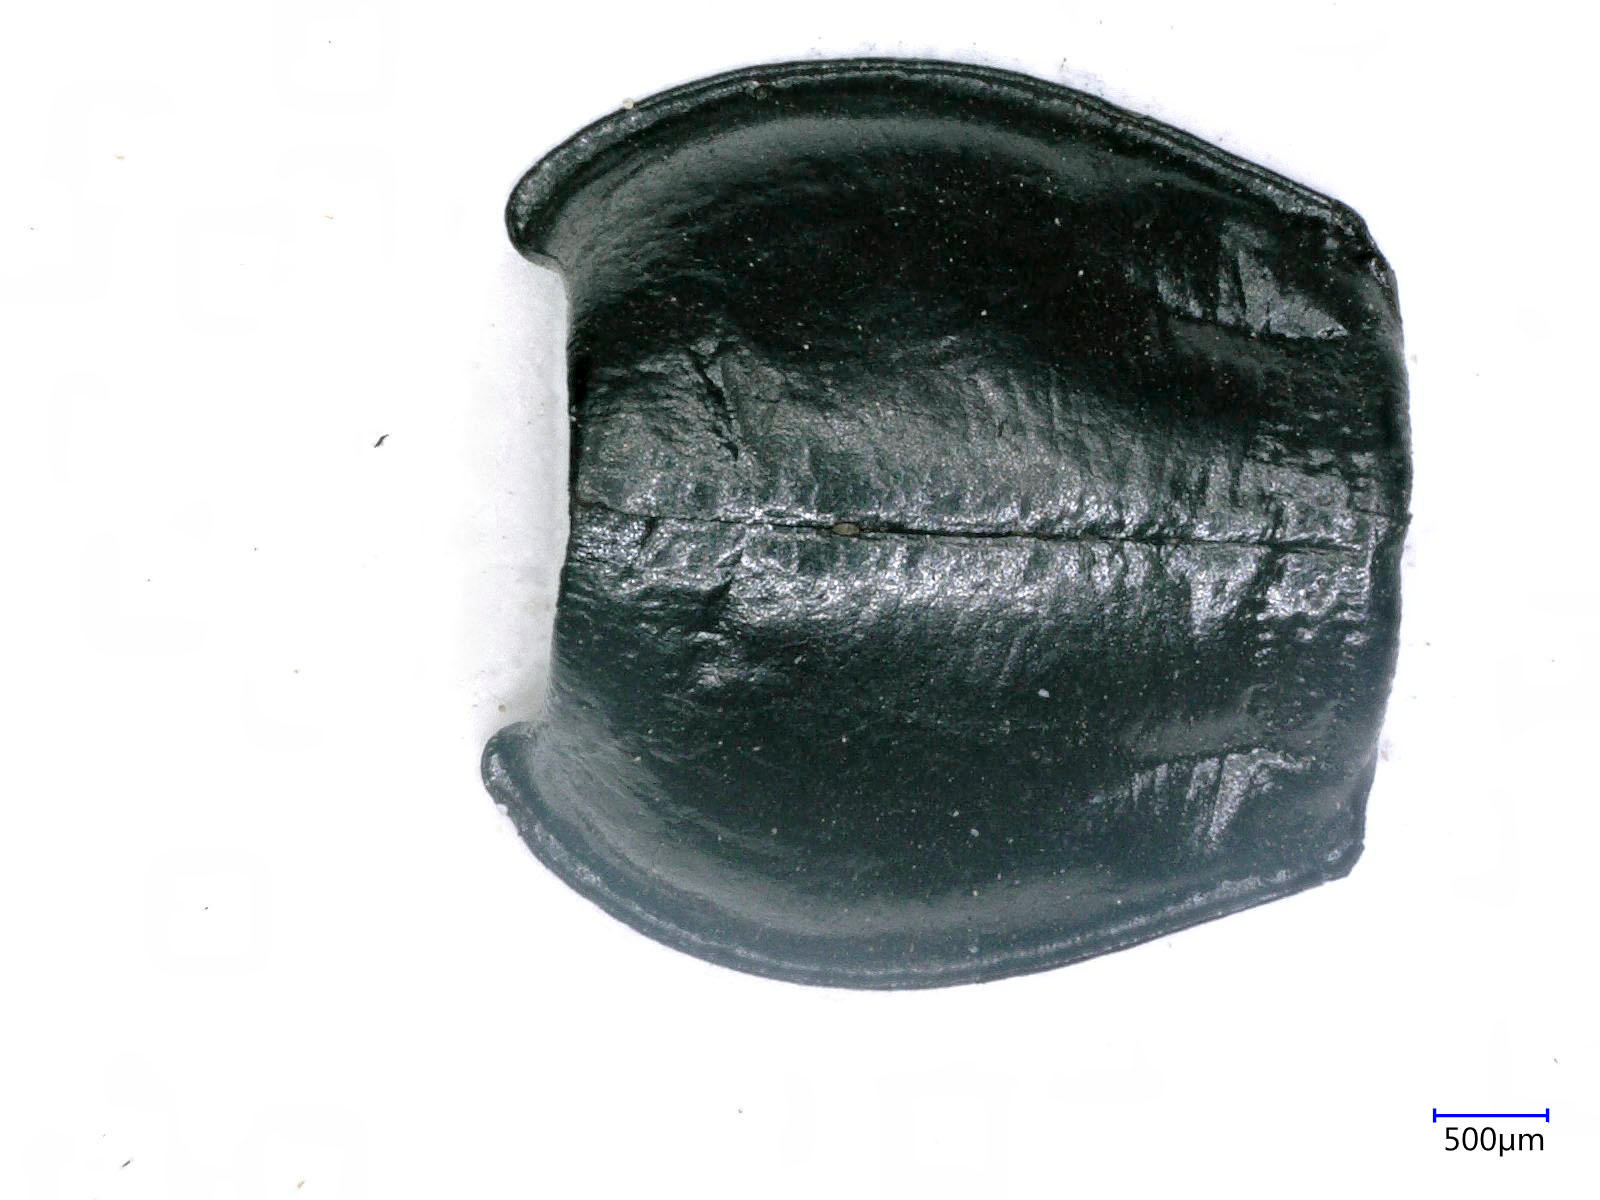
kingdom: Animalia
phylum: Arthropoda
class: Insecta
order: Coleoptera
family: Carabidae
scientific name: Carabidae
